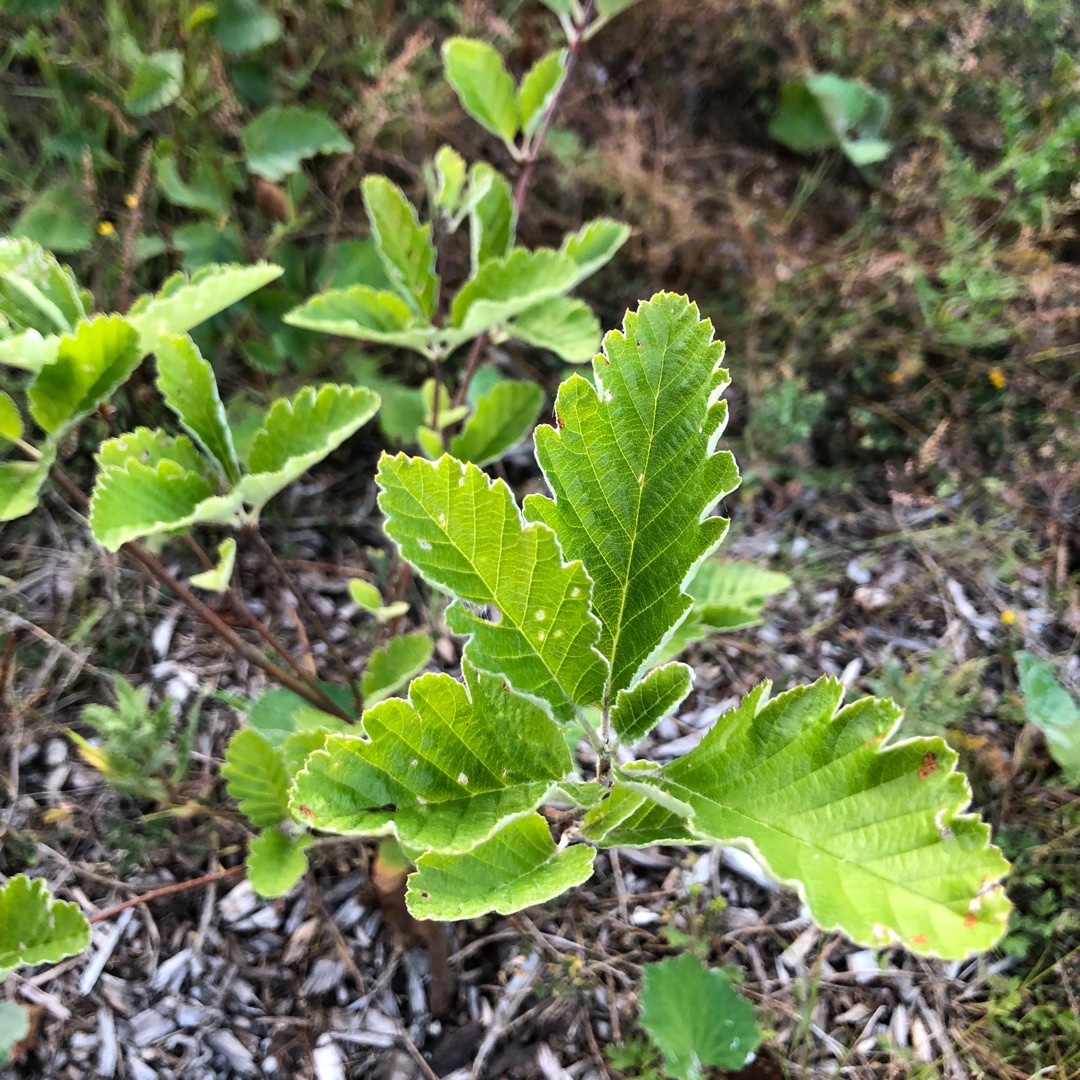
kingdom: Plantae
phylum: Tracheophyta
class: Magnoliopsida
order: Rosales
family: Rosaceae
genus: Scandosorbus
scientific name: Scandosorbus intermedia
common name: Selje-røn
